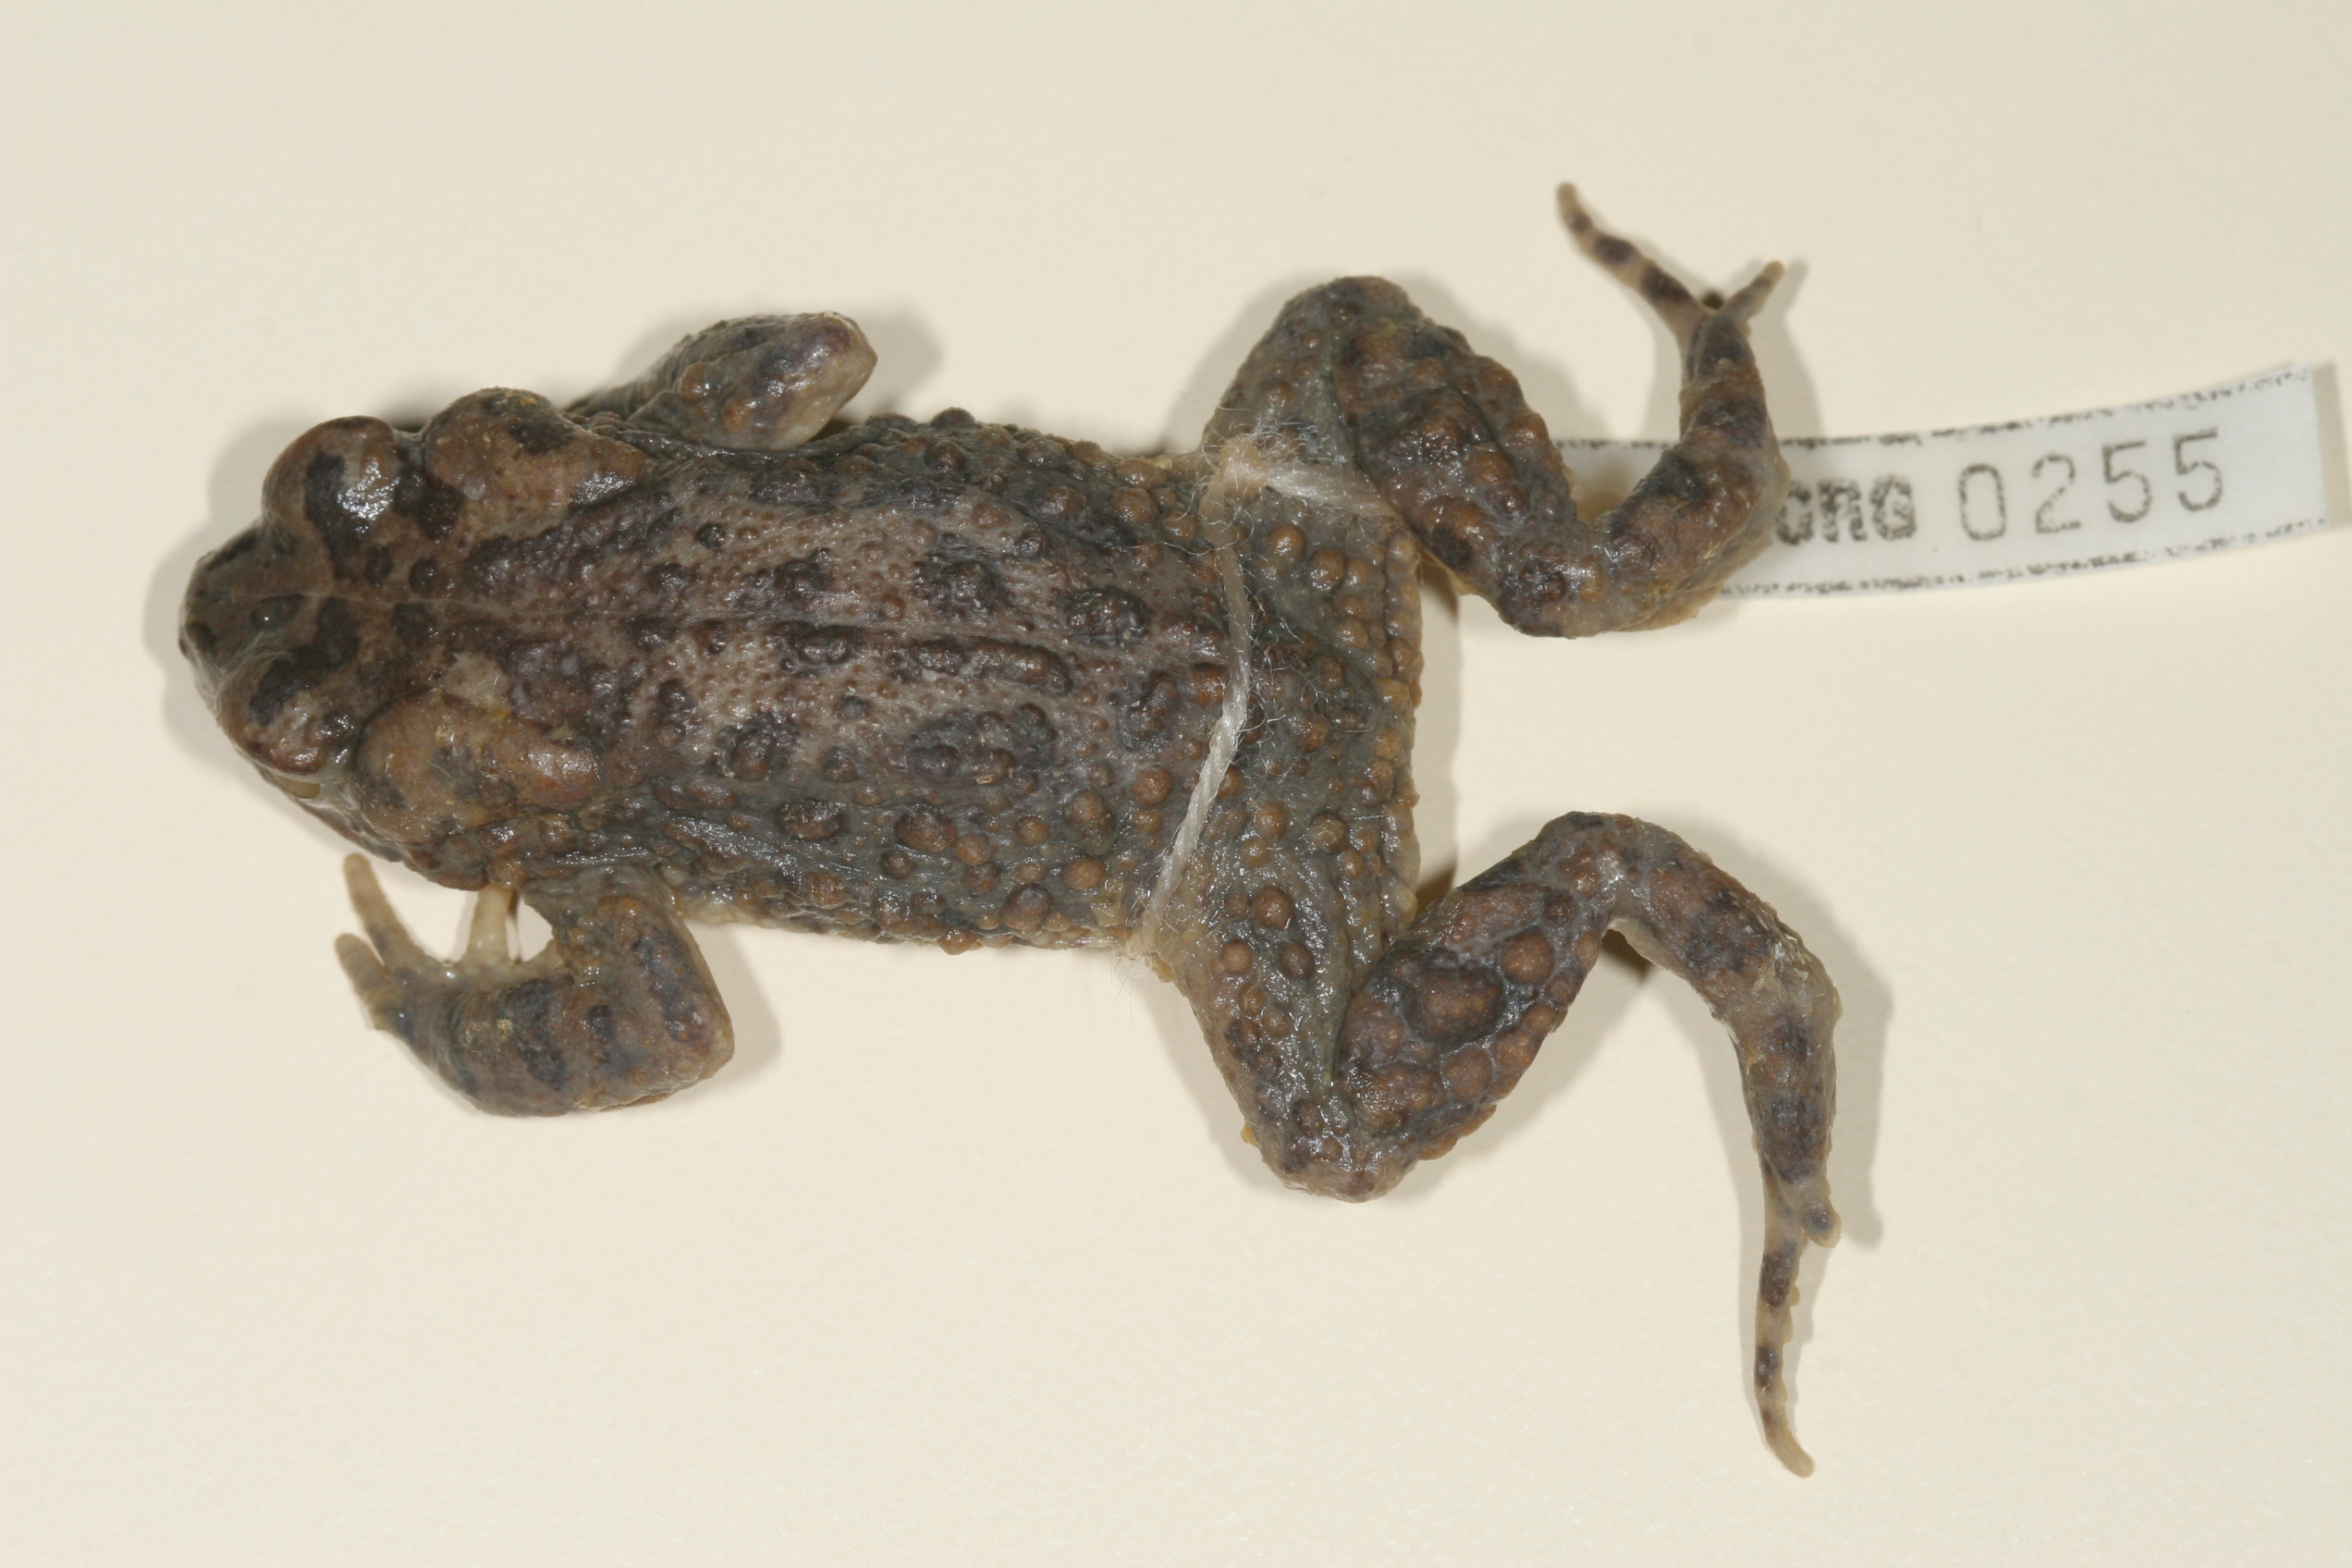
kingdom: Animalia
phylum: Chordata
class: Amphibia
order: Anura
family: Bufonidae
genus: Vandijkophrynus
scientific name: Vandijkophrynus robinsoni
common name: Paradise toad
